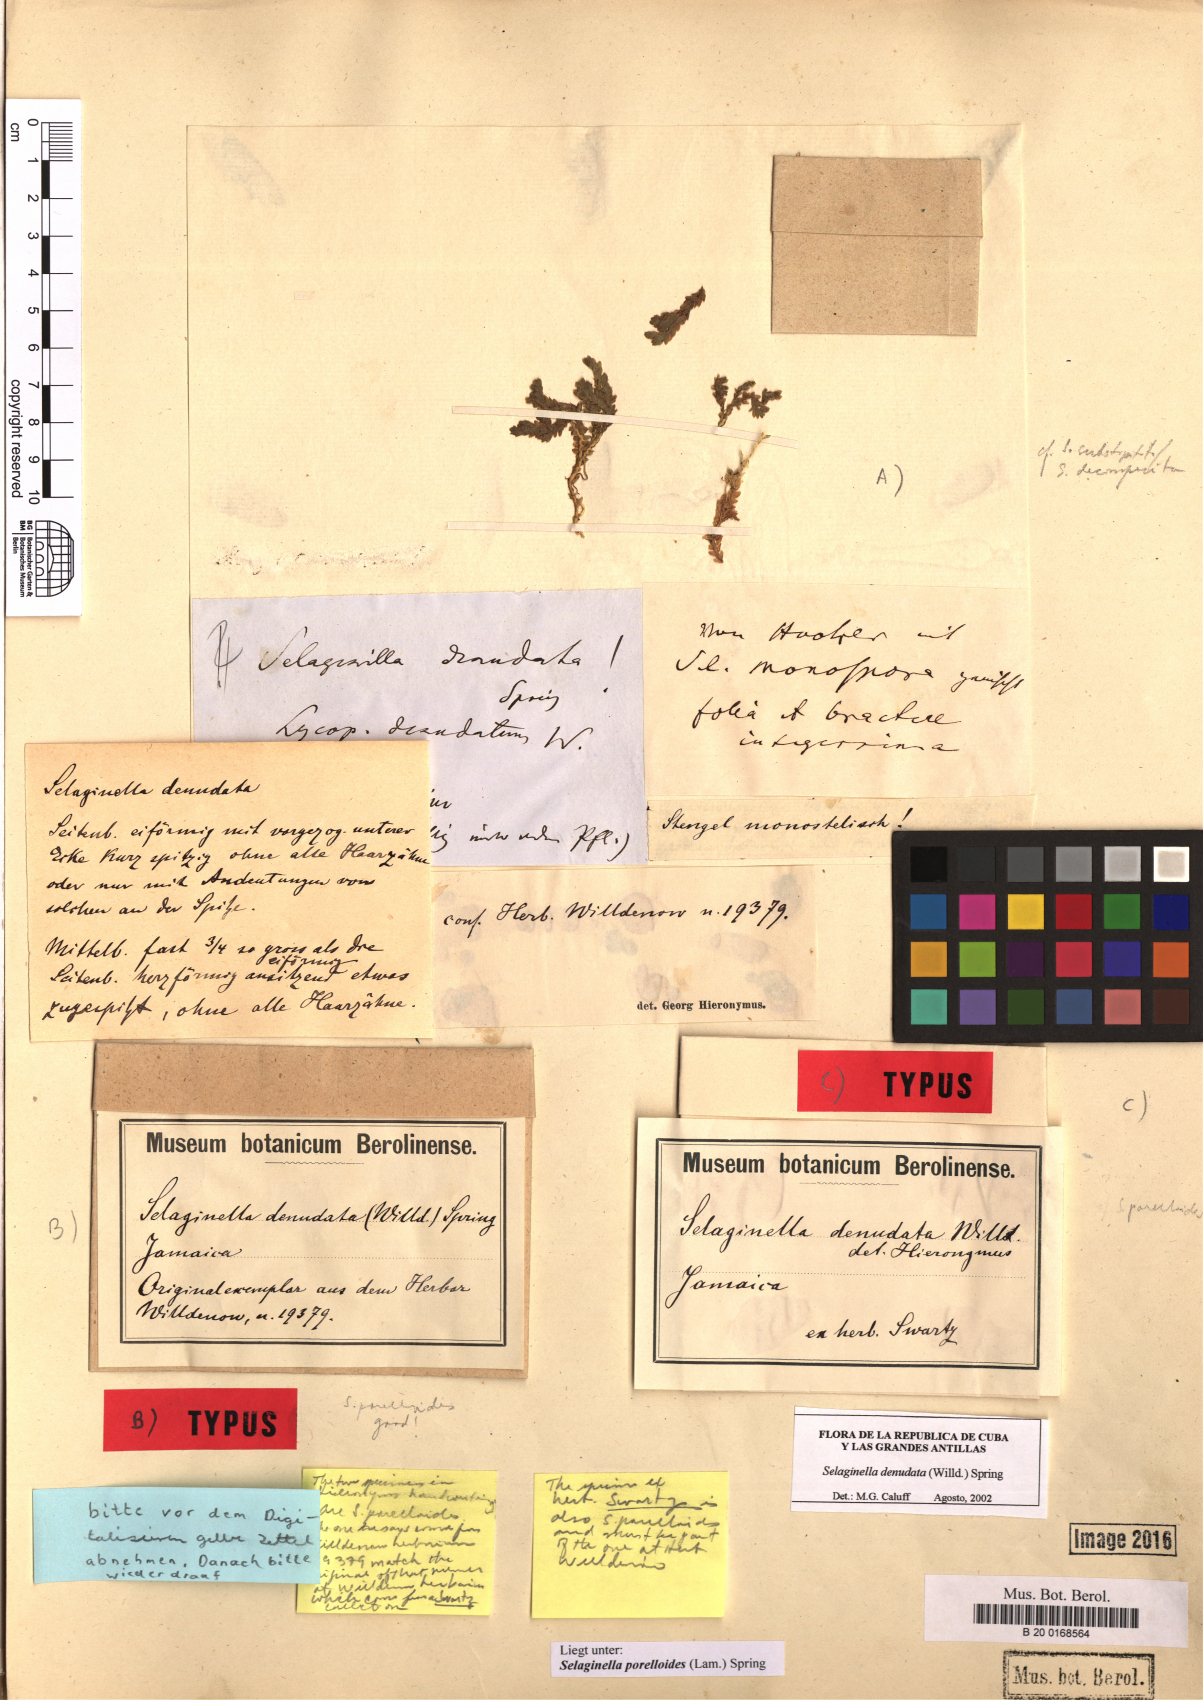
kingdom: Plantae
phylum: Tracheophyta
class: Lycopodiopsida
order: Selaginellales
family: Selaginellaceae
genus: Selaginella
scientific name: Selaginella porelloides
